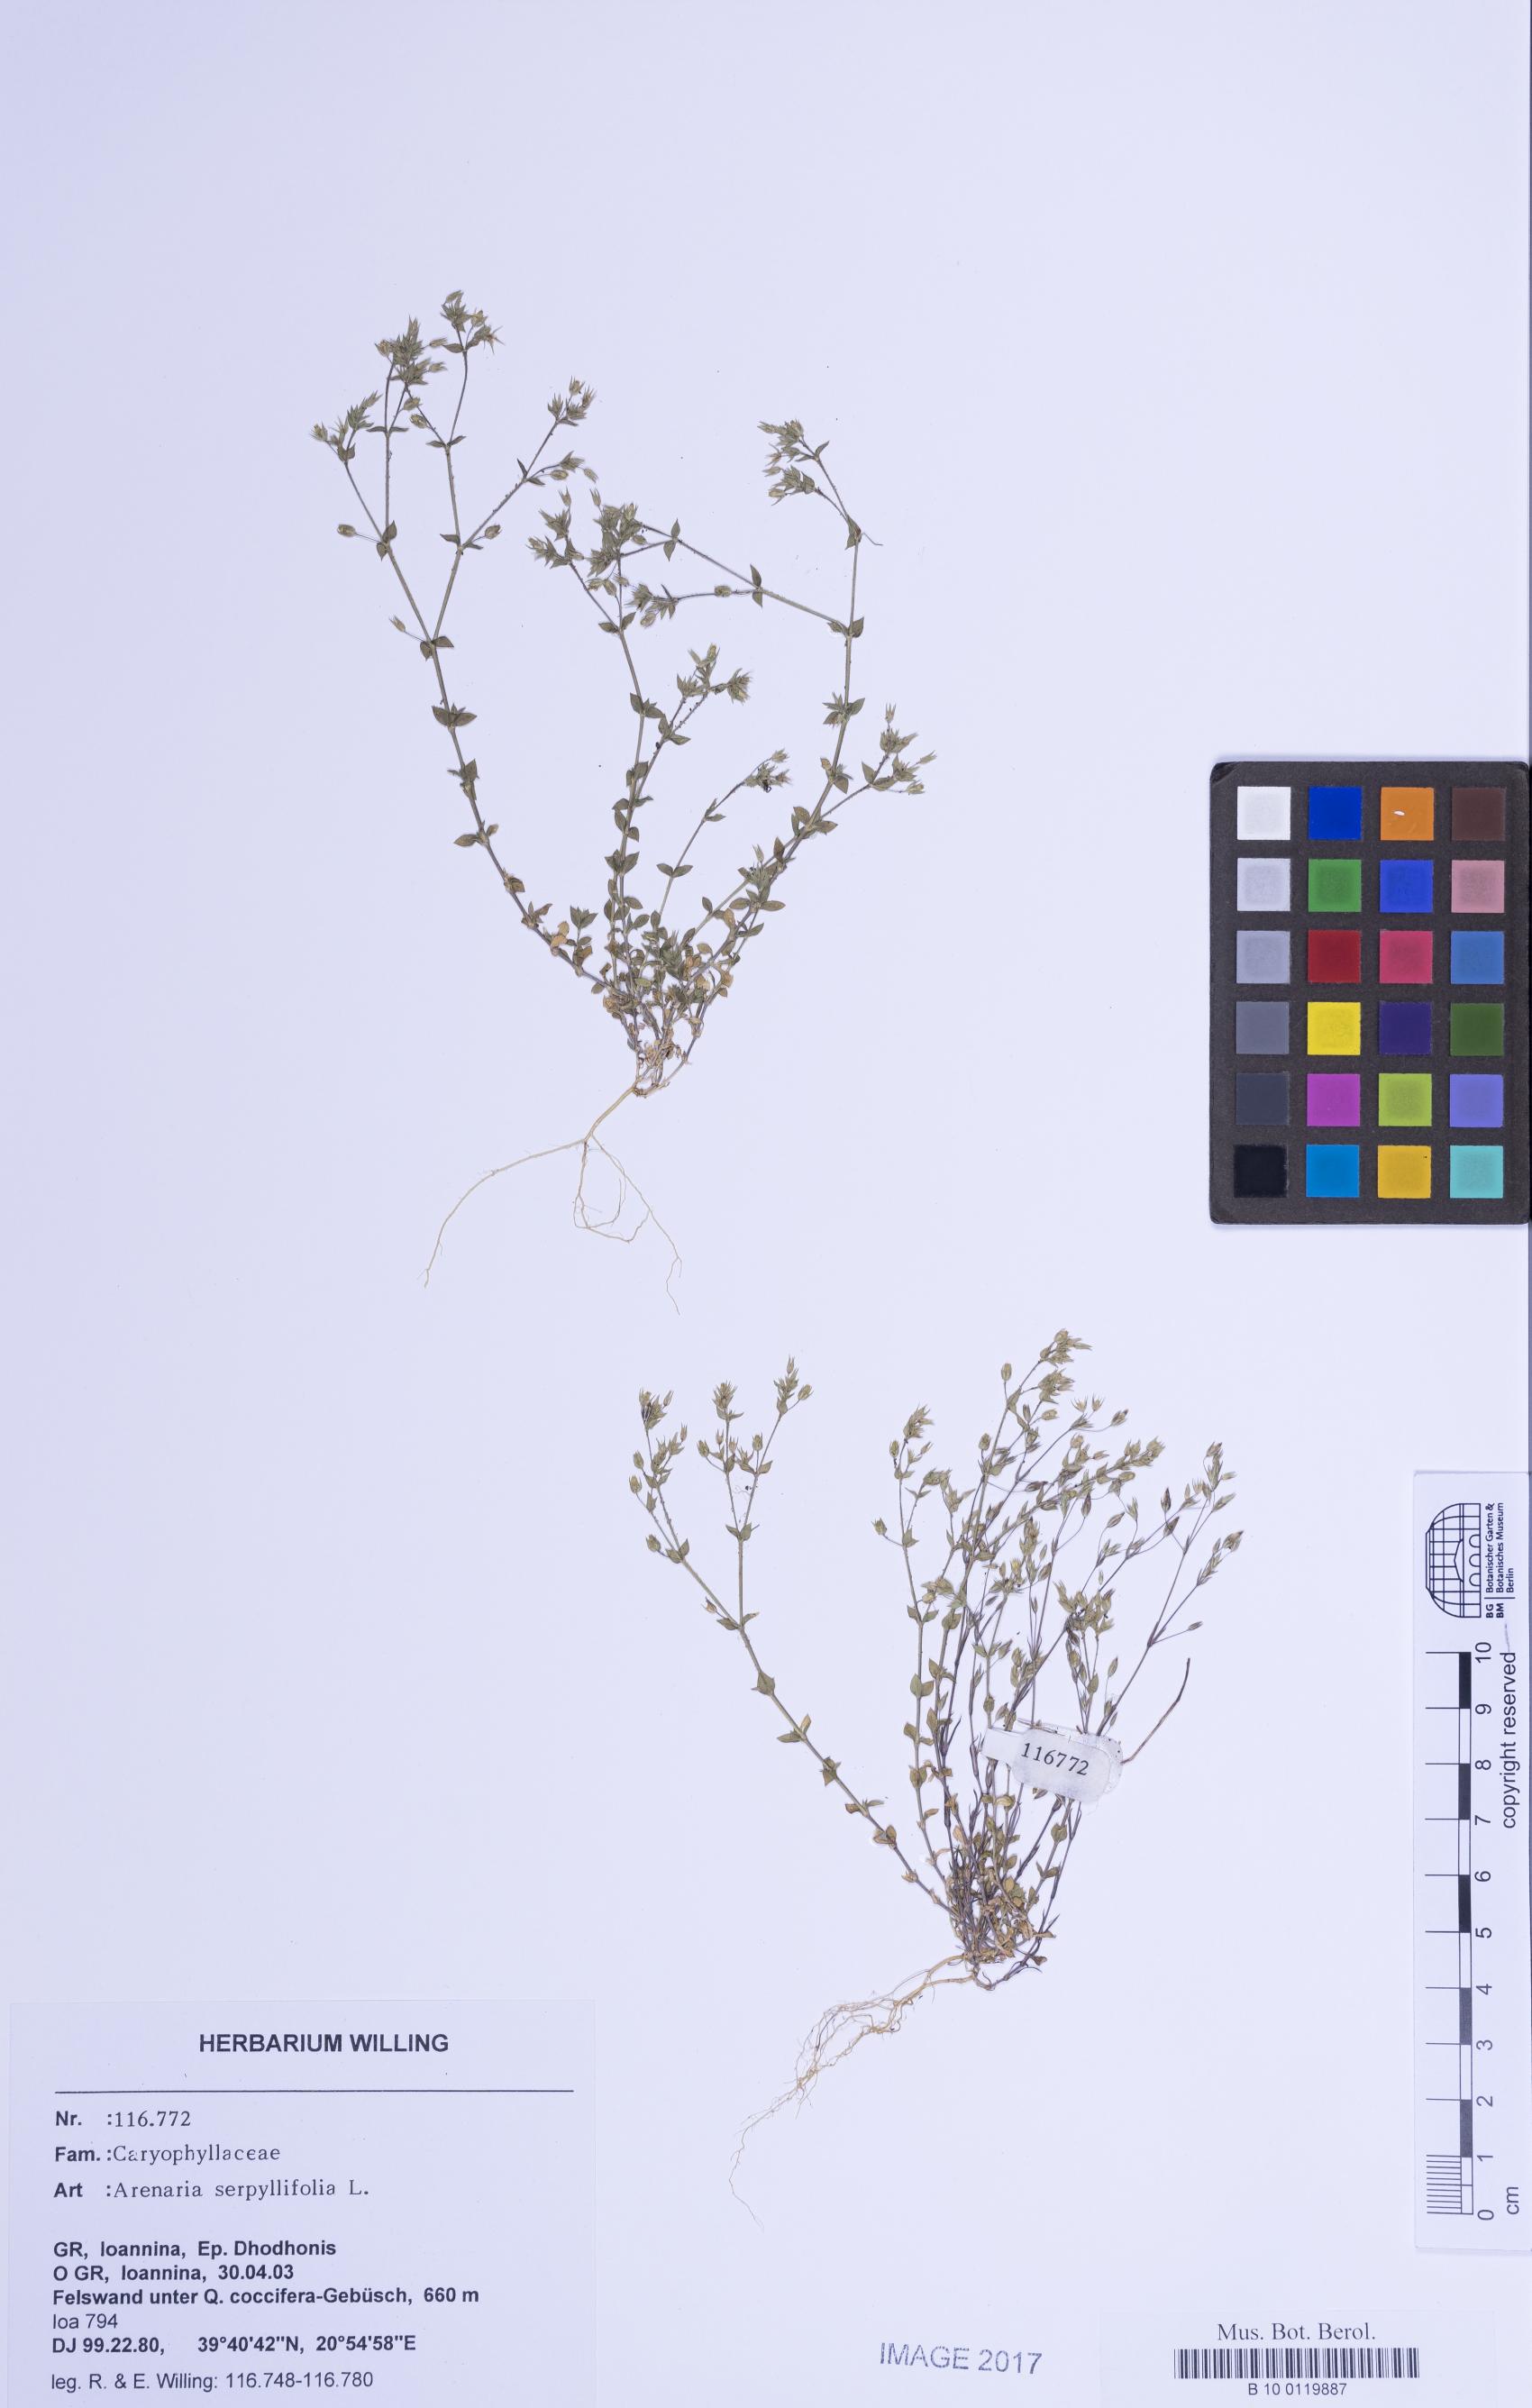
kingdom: Plantae
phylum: Tracheophyta
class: Magnoliopsida
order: Caryophyllales
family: Caryophyllaceae
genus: Arenaria
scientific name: Arenaria serpyllifolia
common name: Thyme-leaved sandwort
